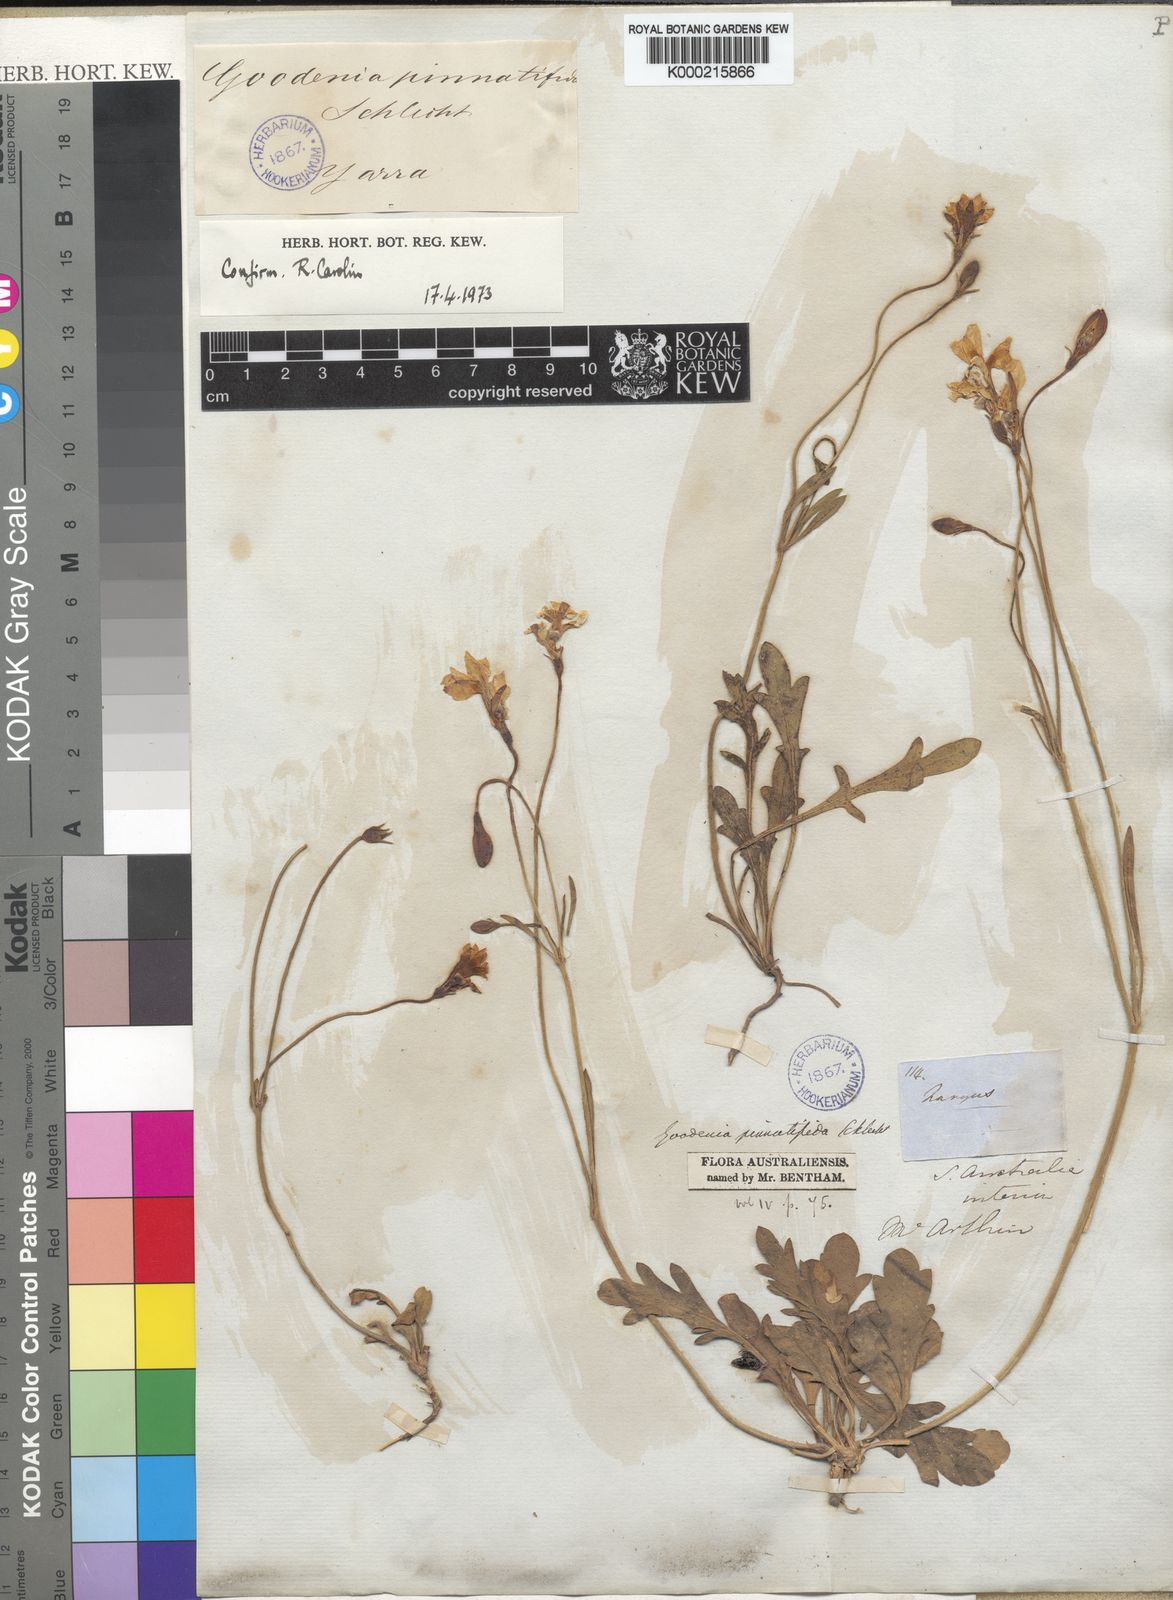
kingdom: Plantae
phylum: Tracheophyta
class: Magnoliopsida
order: Asterales
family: Goodeniaceae
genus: Goodenia
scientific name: Goodenia pinnatifida
